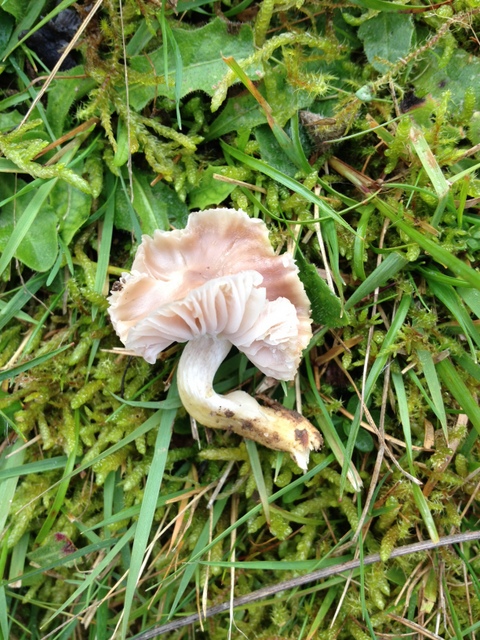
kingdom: Fungi
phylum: Basidiomycota
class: Agaricomycetes
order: Agaricales
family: Hygrophoraceae
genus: Cuphophyllus
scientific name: Cuphophyllus flavipes
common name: gulfodet vokshat
